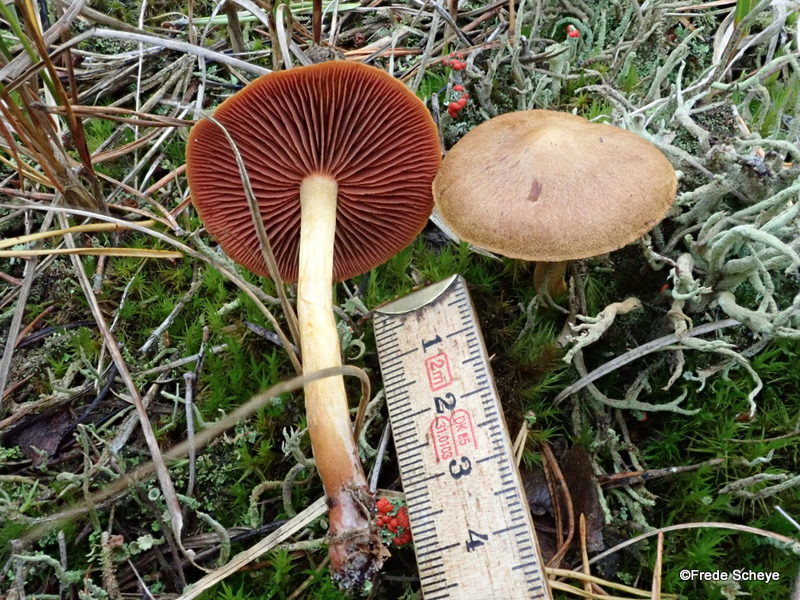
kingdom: Fungi
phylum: Basidiomycota
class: Agaricomycetes
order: Agaricales
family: Cortinariaceae
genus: Cortinarius
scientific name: Cortinarius
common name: cinnoberbladet slørhat
